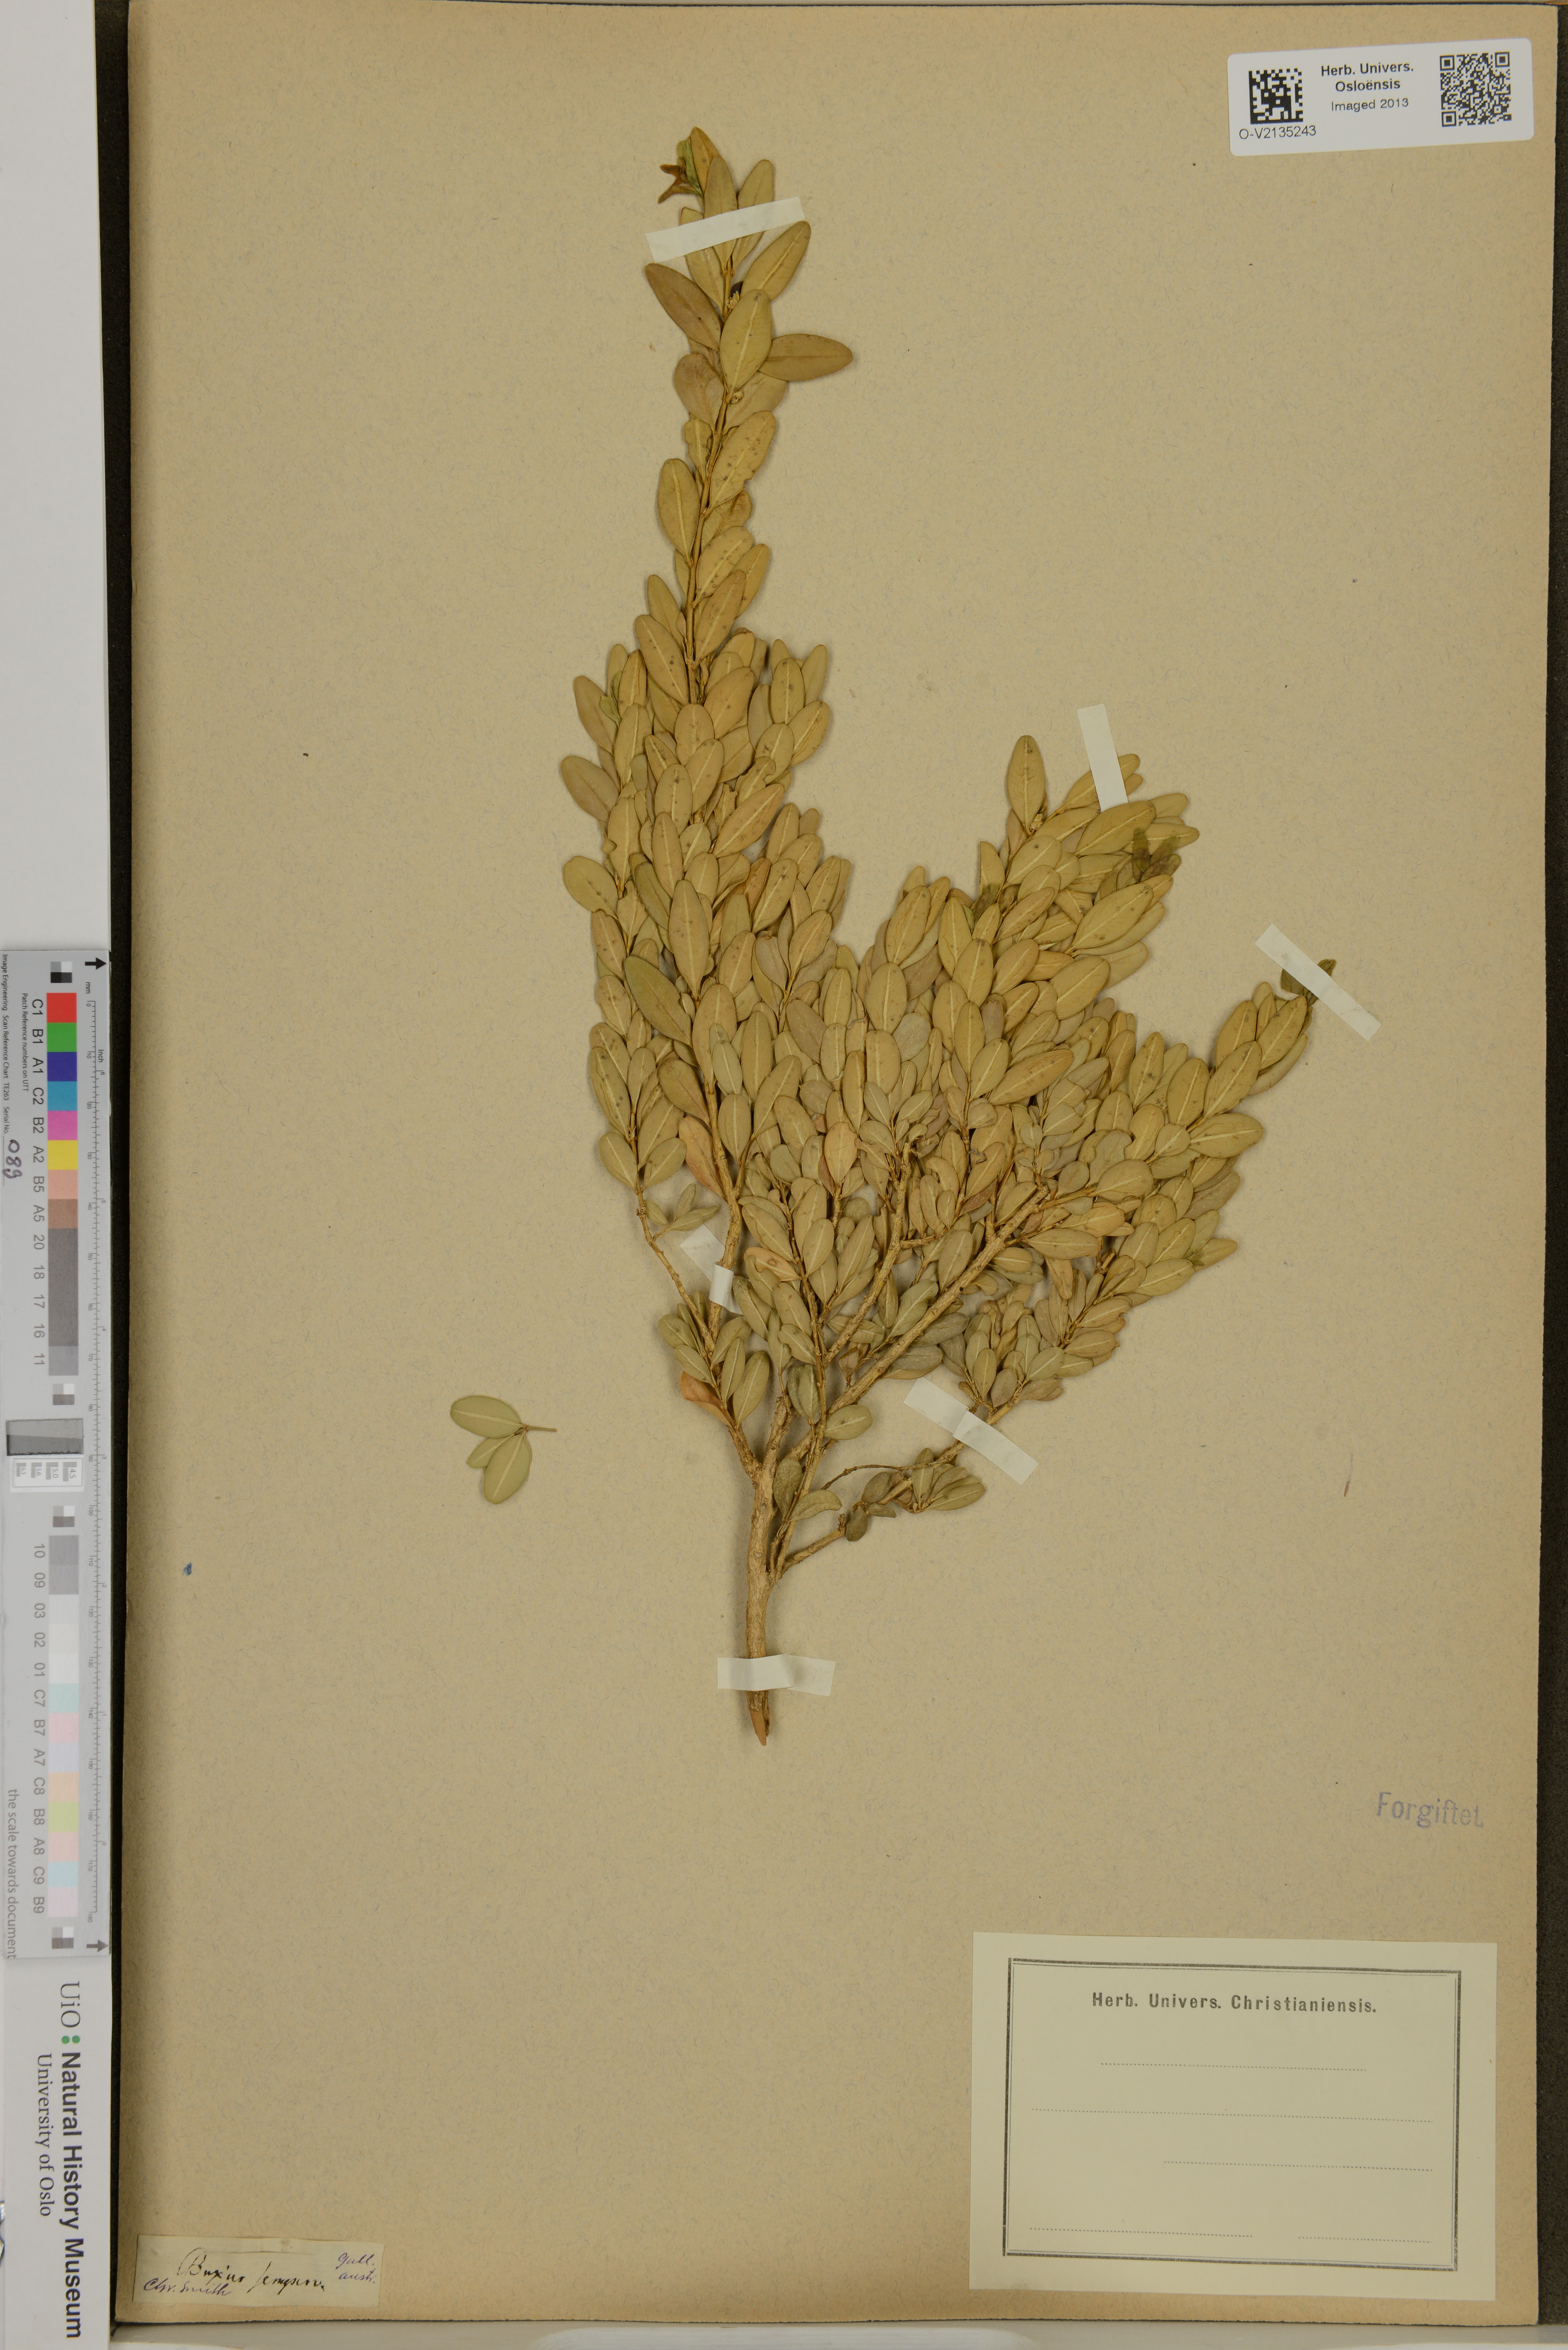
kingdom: Plantae
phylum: Tracheophyta
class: Magnoliopsida
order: Buxales
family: Buxaceae
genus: Buxus
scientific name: Buxus sempervirens
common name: Box
